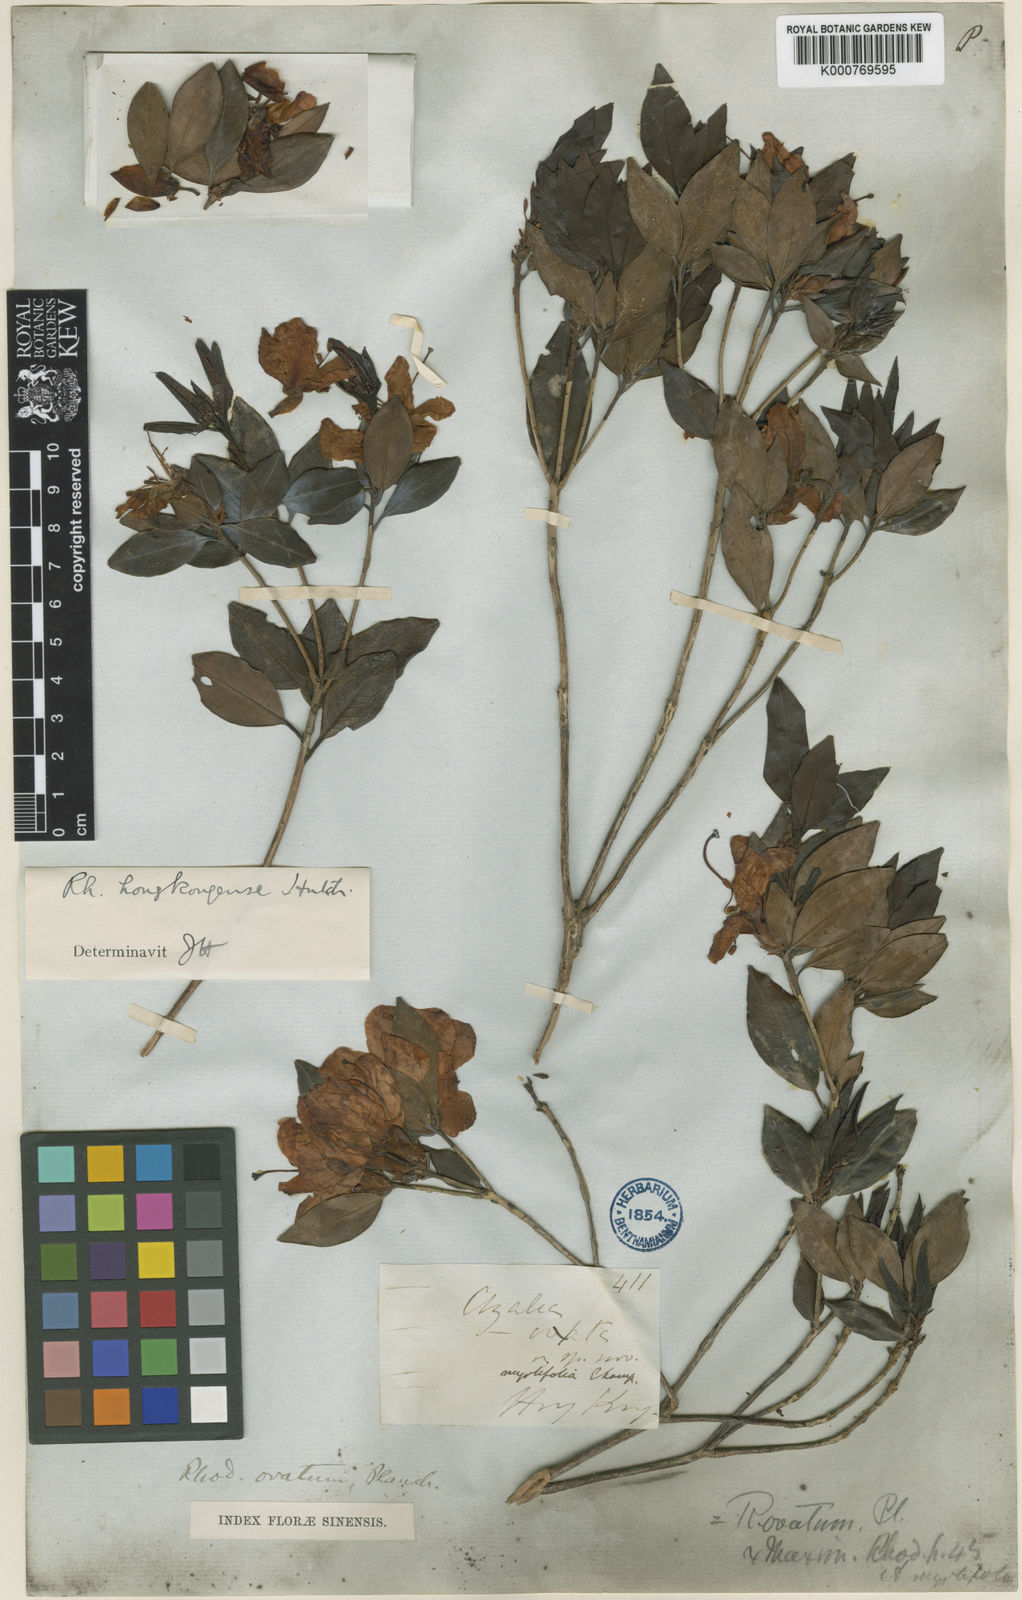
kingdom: Plantae
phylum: Tracheophyta
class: Magnoliopsida
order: Ericales
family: Ericaceae
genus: Rhododendron
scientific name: Rhododendron hongkongense
